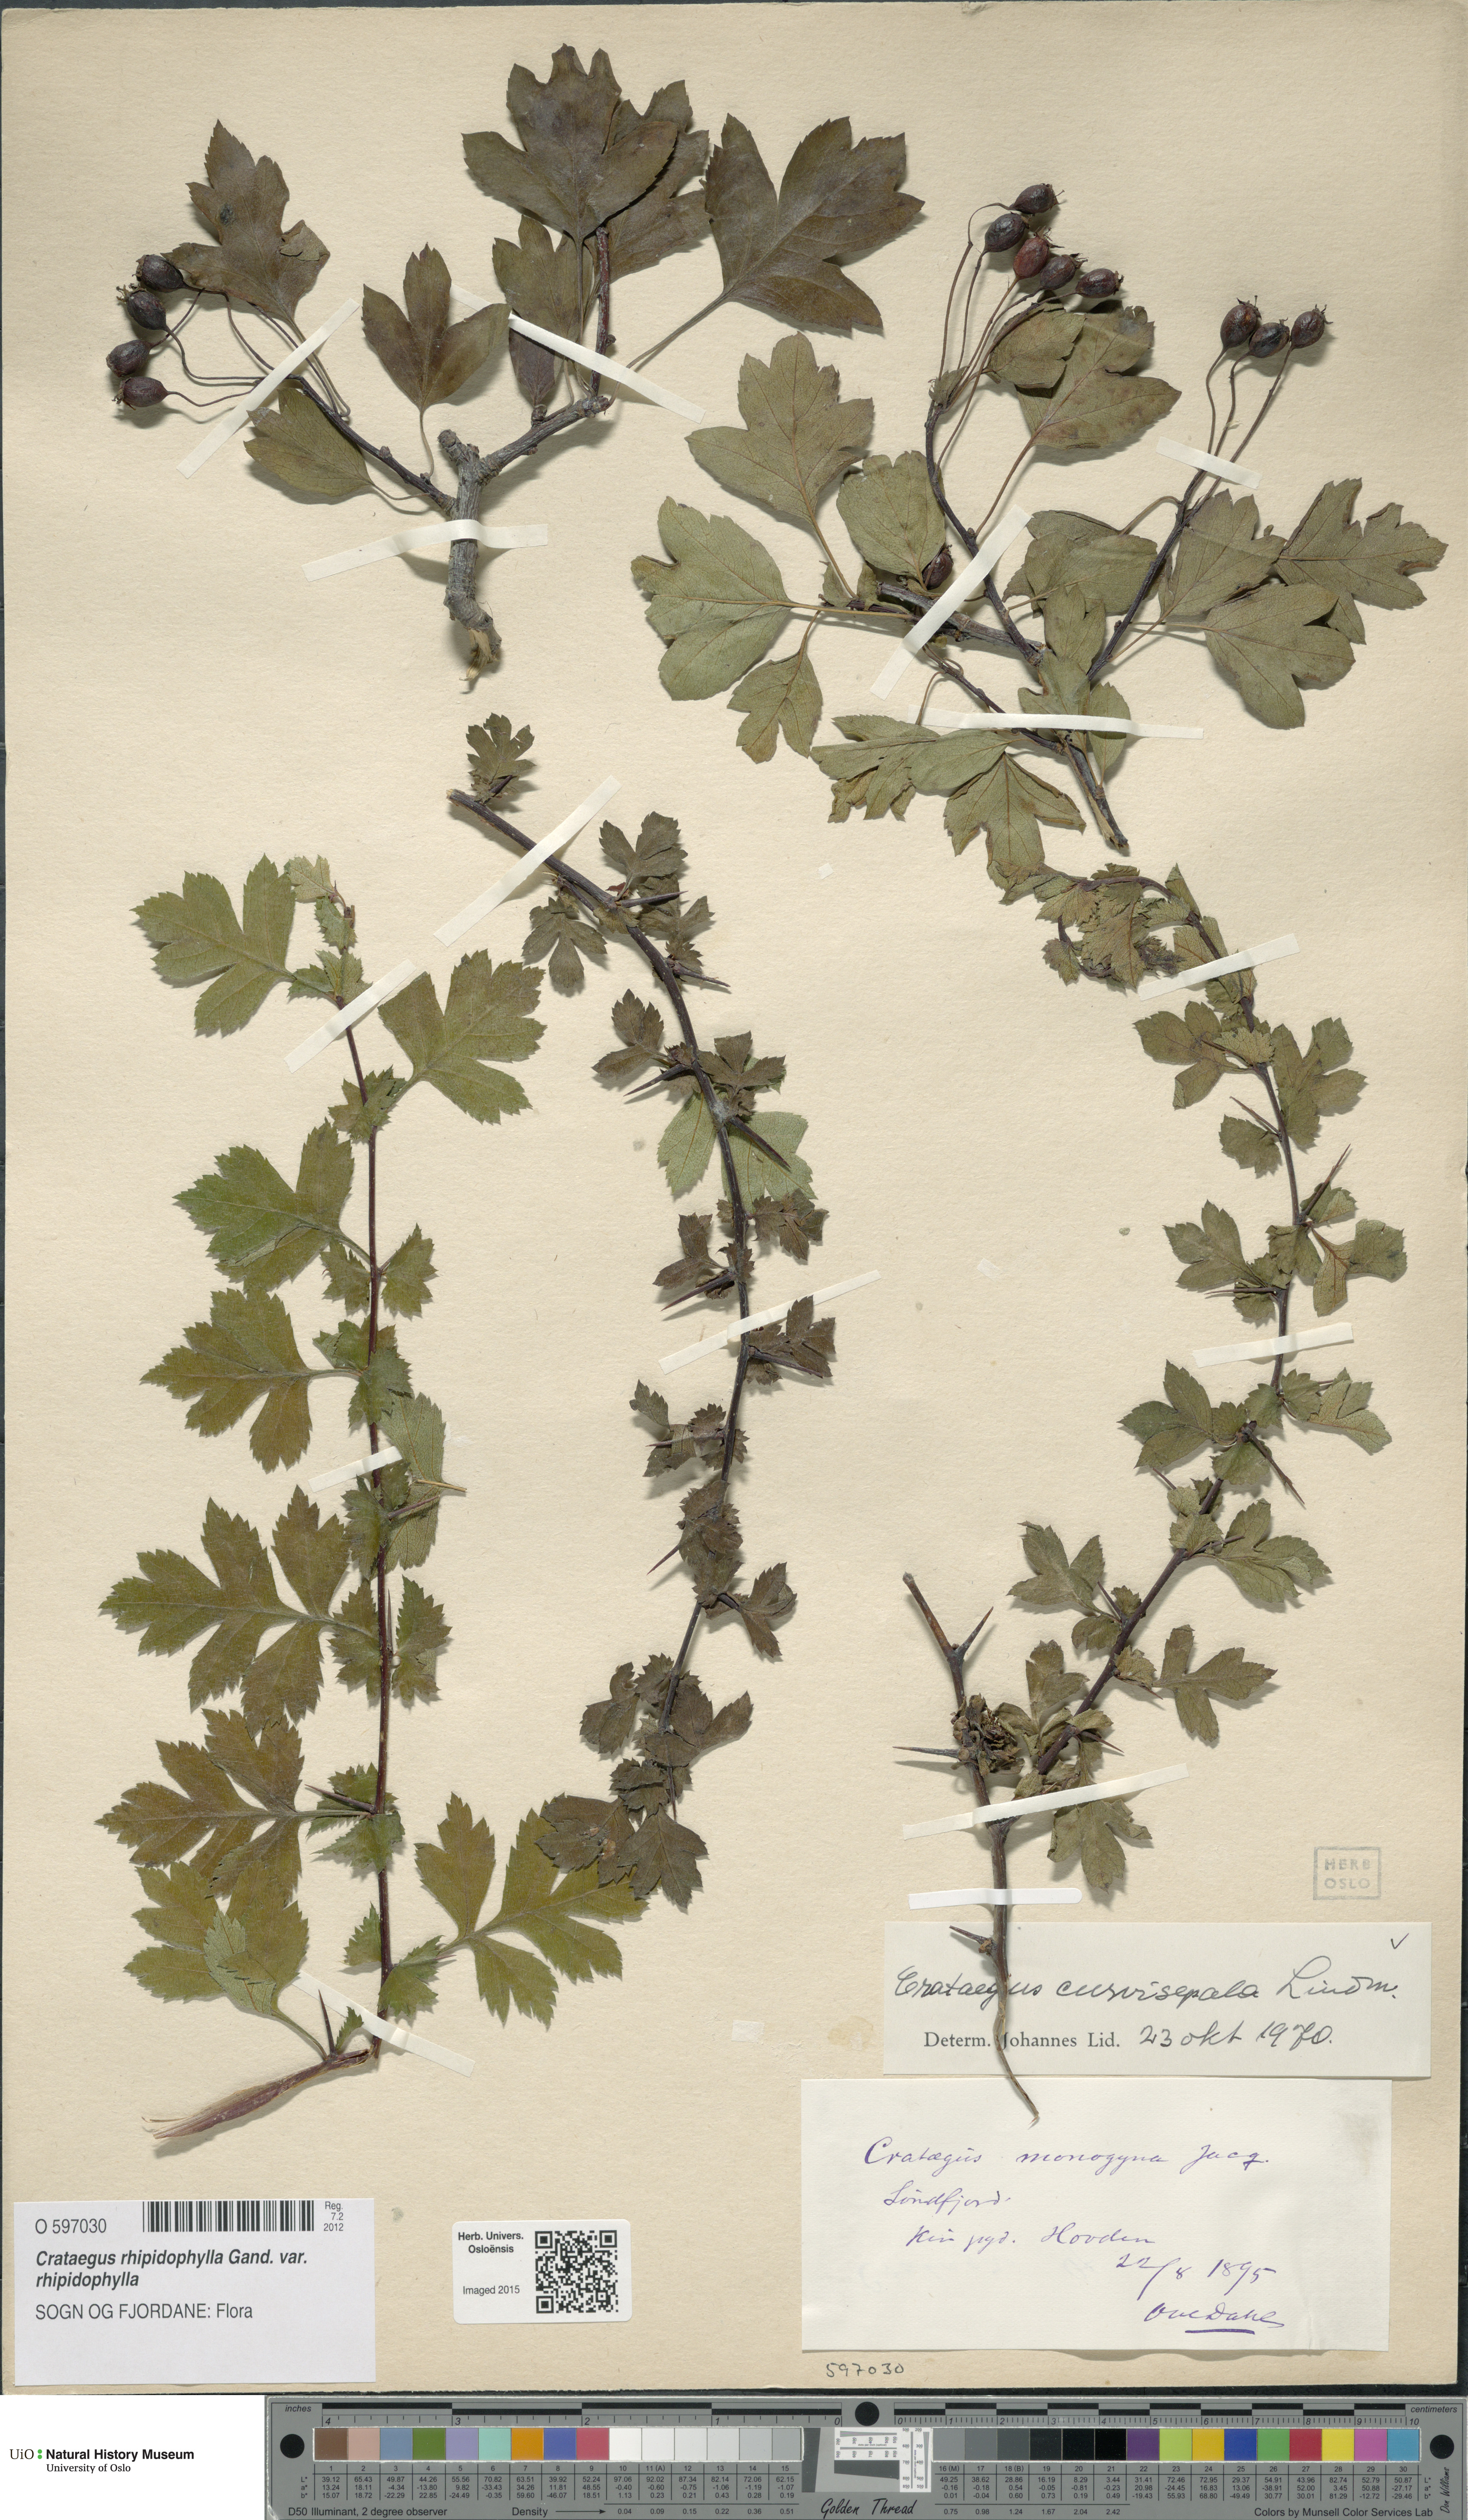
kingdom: Plantae
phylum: Tracheophyta
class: Magnoliopsida
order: Rosales
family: Rosaceae
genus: Crataegus
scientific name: Crataegus rhipidophylla
